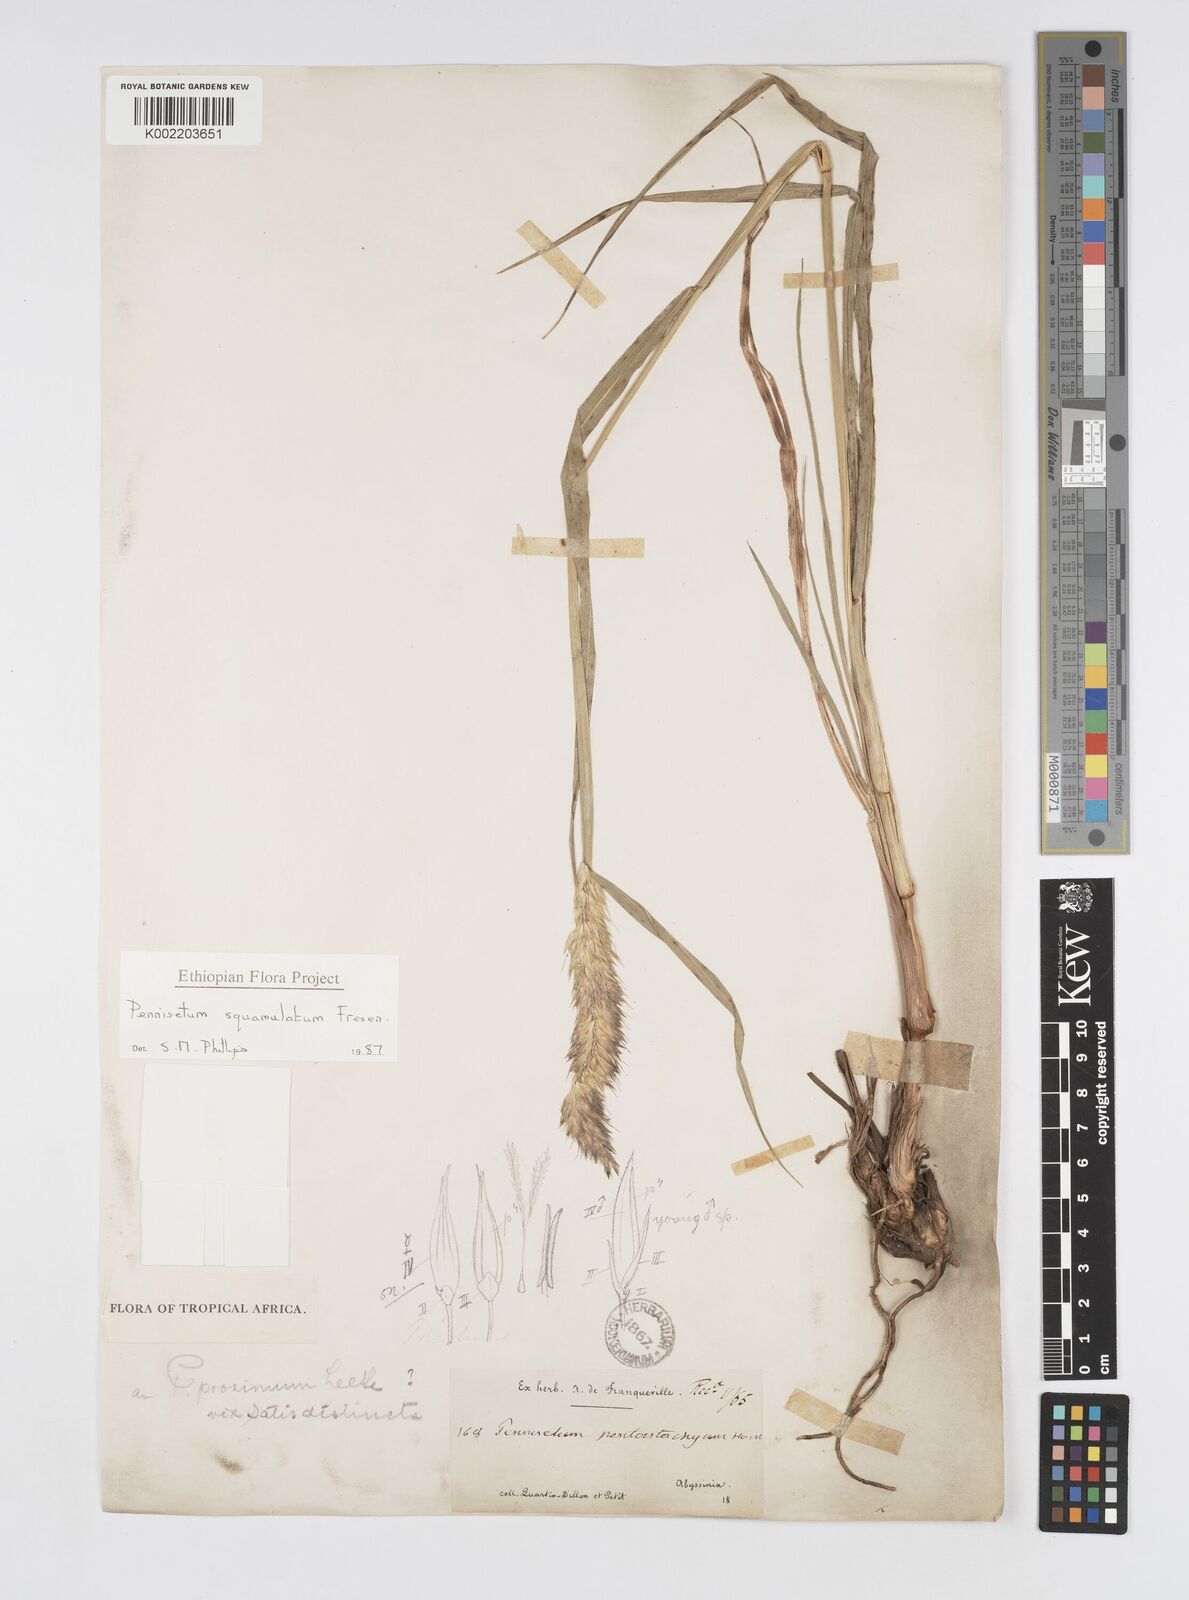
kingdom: Plantae
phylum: Tracheophyta
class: Liliopsida
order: Poales
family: Poaceae
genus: Cenchrus
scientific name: Cenchrus squamulatus
